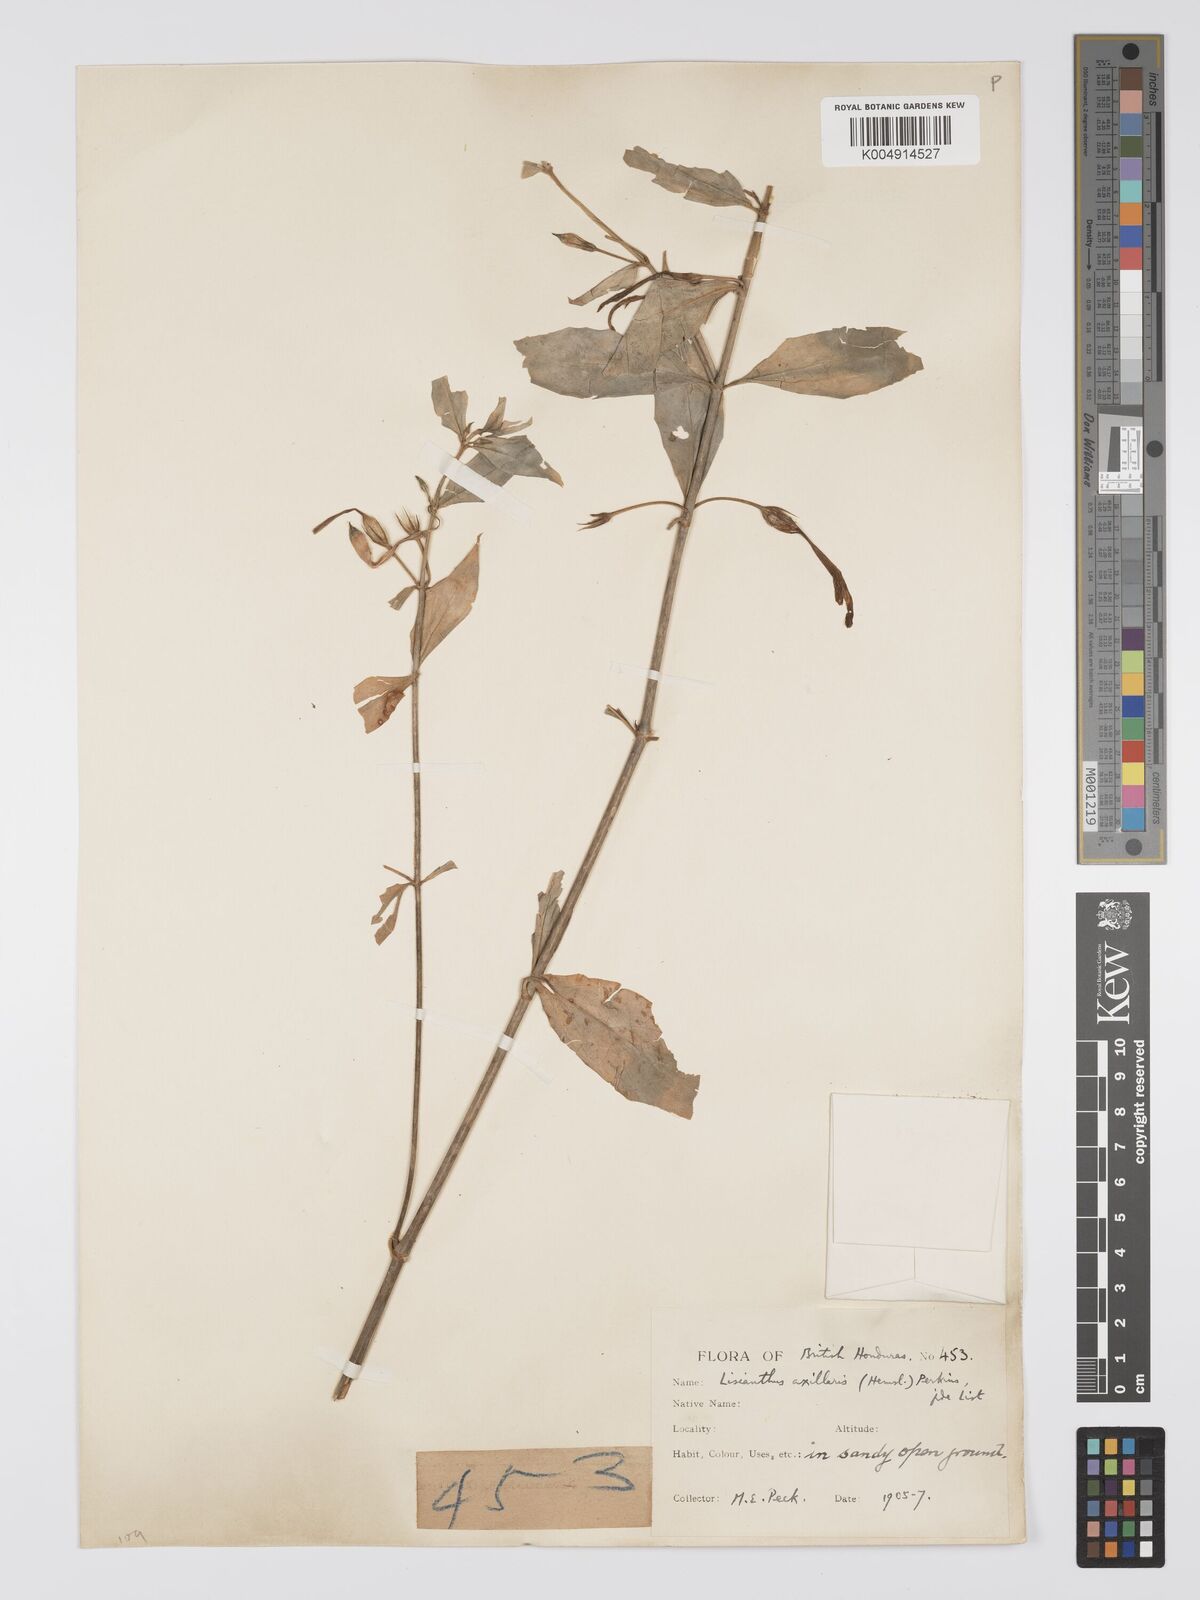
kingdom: Plantae
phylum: Tracheophyta
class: Magnoliopsida
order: Gentianales
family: Gentianaceae
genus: Lisianthius
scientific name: Lisianthius
